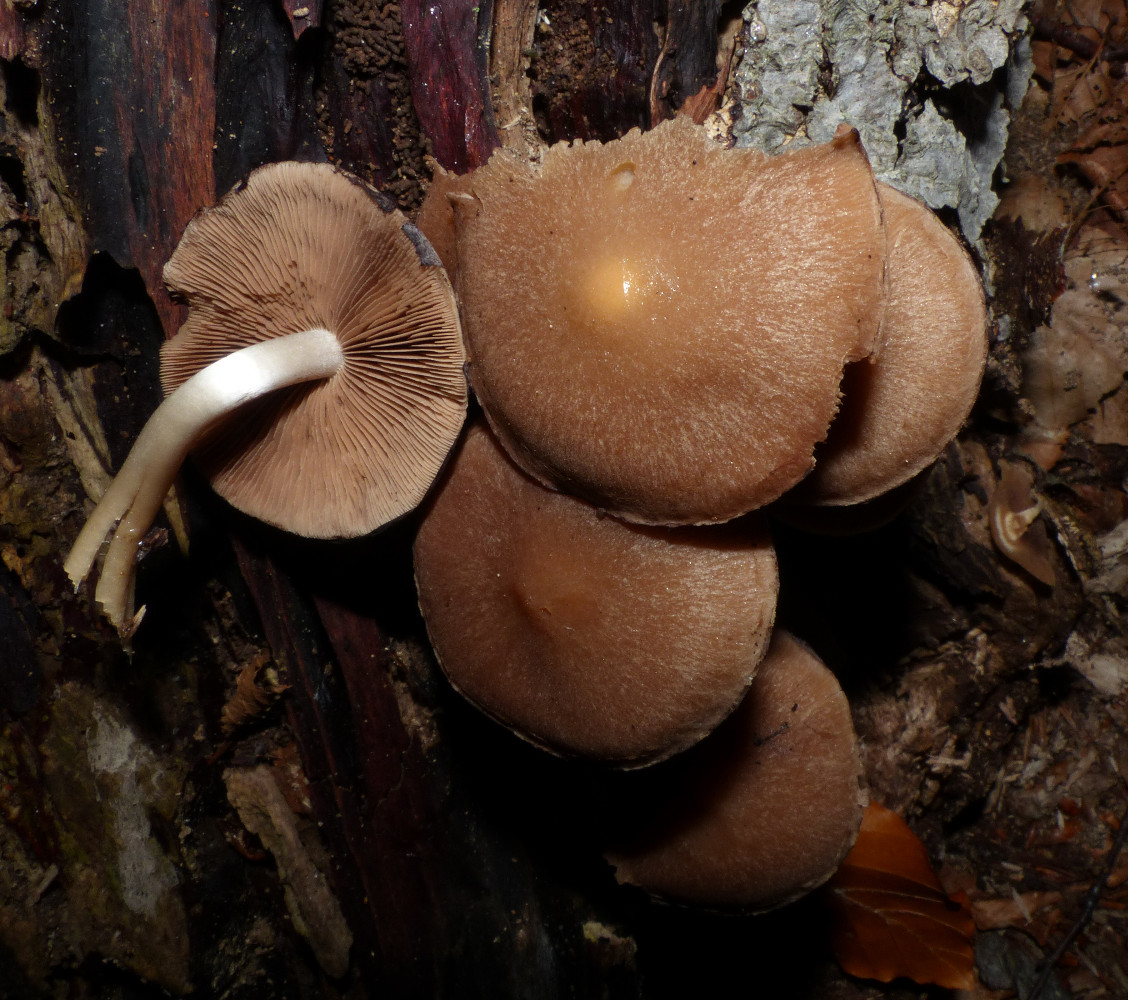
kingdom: Fungi
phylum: Basidiomycota
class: Agaricomycetes
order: Agaricales
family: Psathyrellaceae
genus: Psathyrella
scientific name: Psathyrella piluliformis
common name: lysstokket mørkhat
